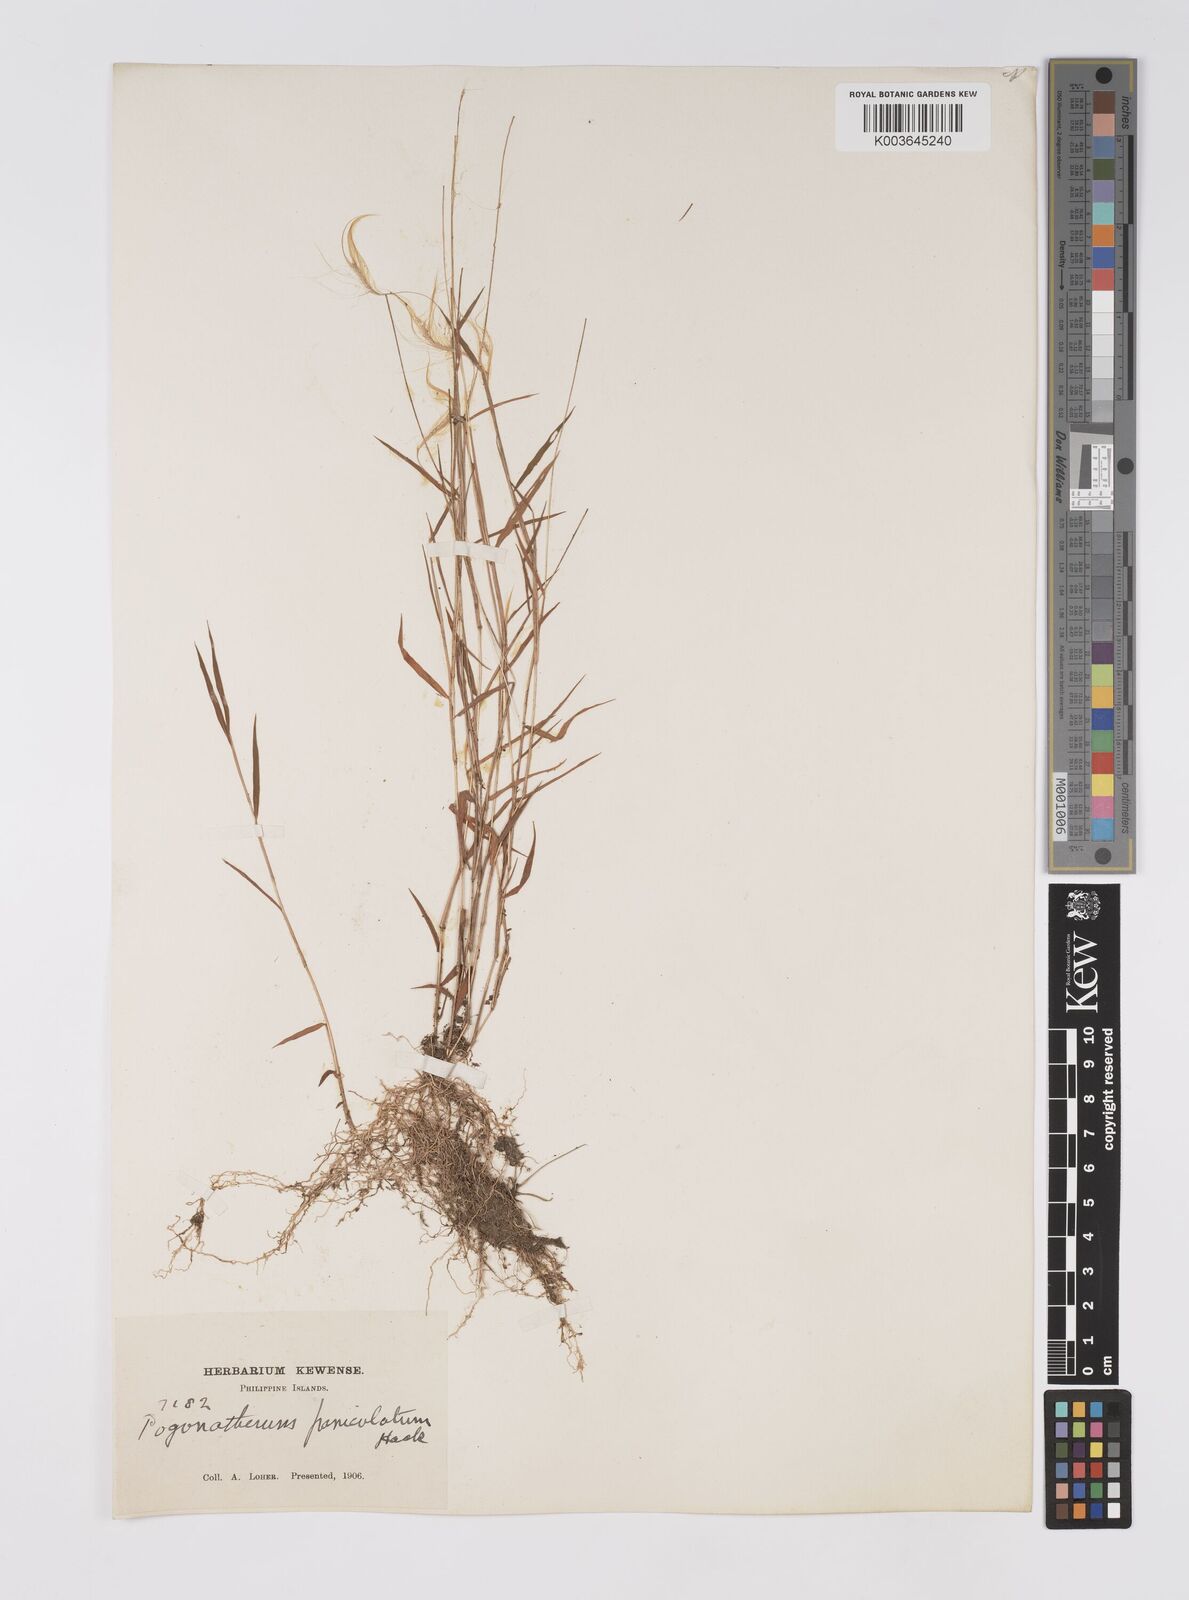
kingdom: Plantae
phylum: Tracheophyta
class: Liliopsida
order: Poales
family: Poaceae
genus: Pogonatherum
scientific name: Pogonatherum crinitum
